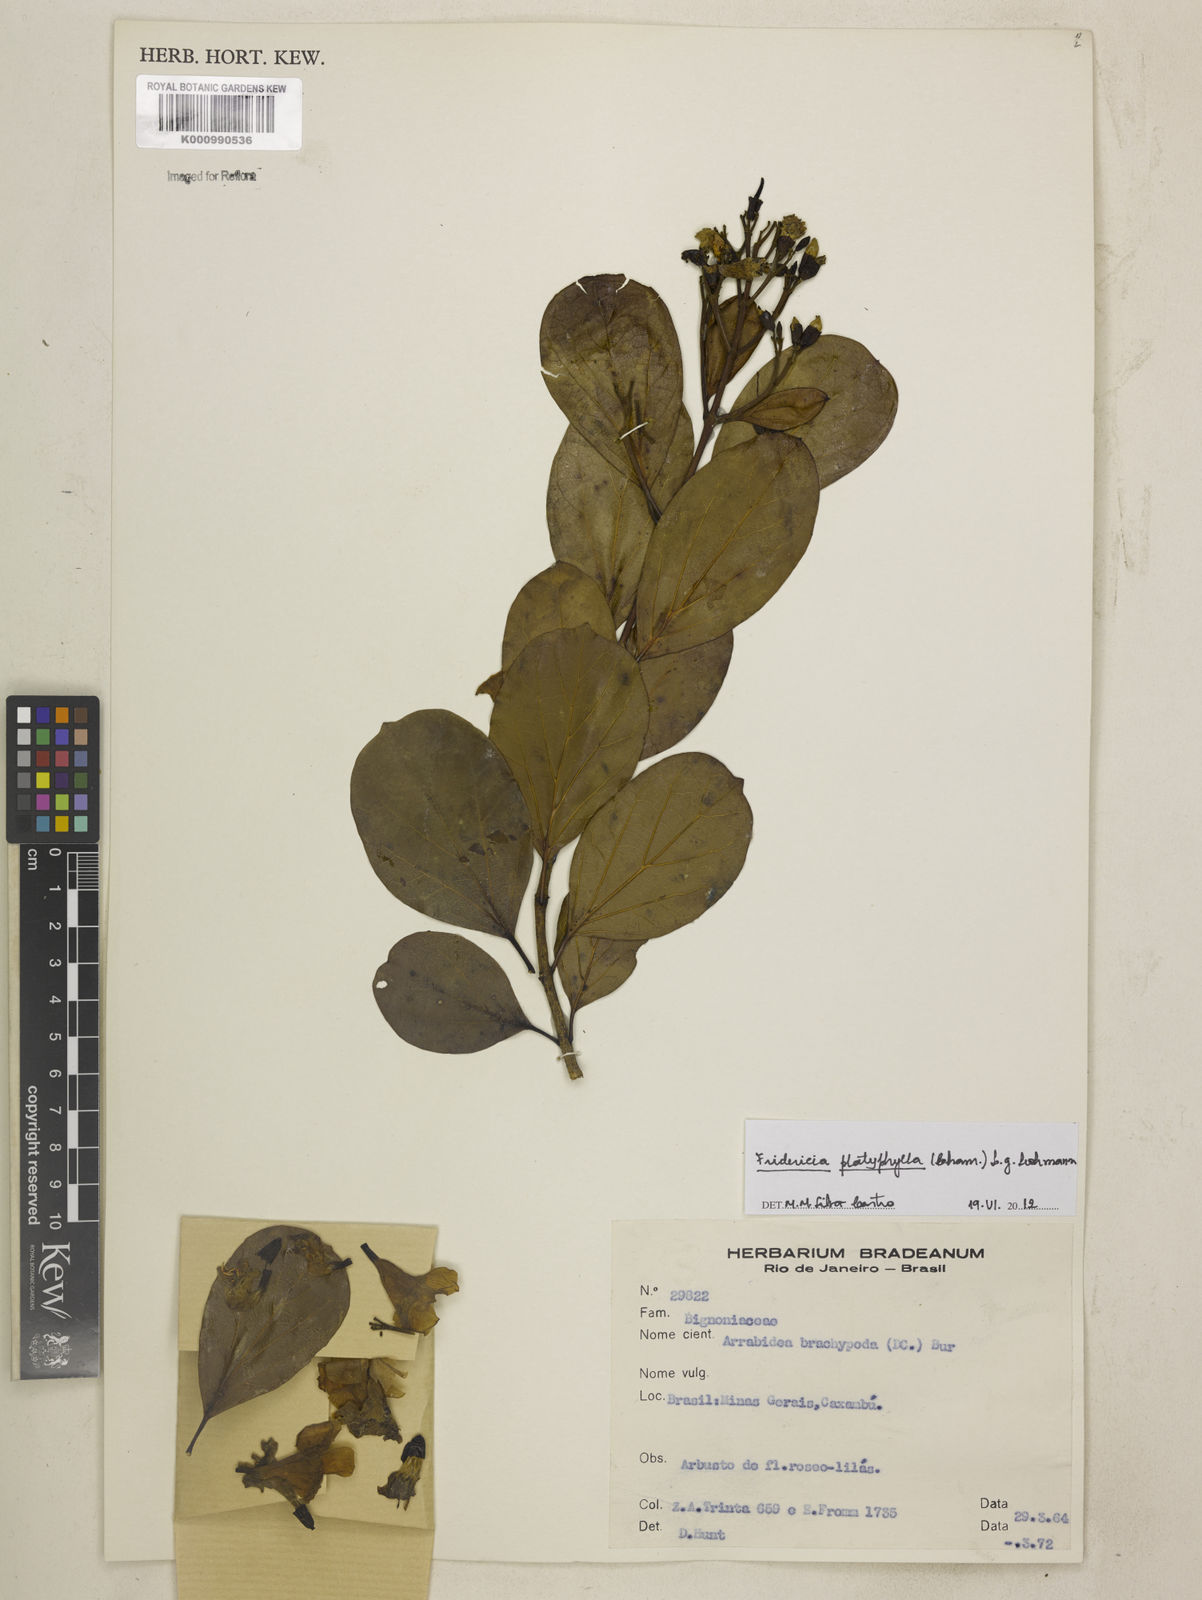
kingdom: Plantae
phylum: Tracheophyta
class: Magnoliopsida
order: Lamiales
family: Bignoniaceae
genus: Fridericia
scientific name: Fridericia platyphylla
